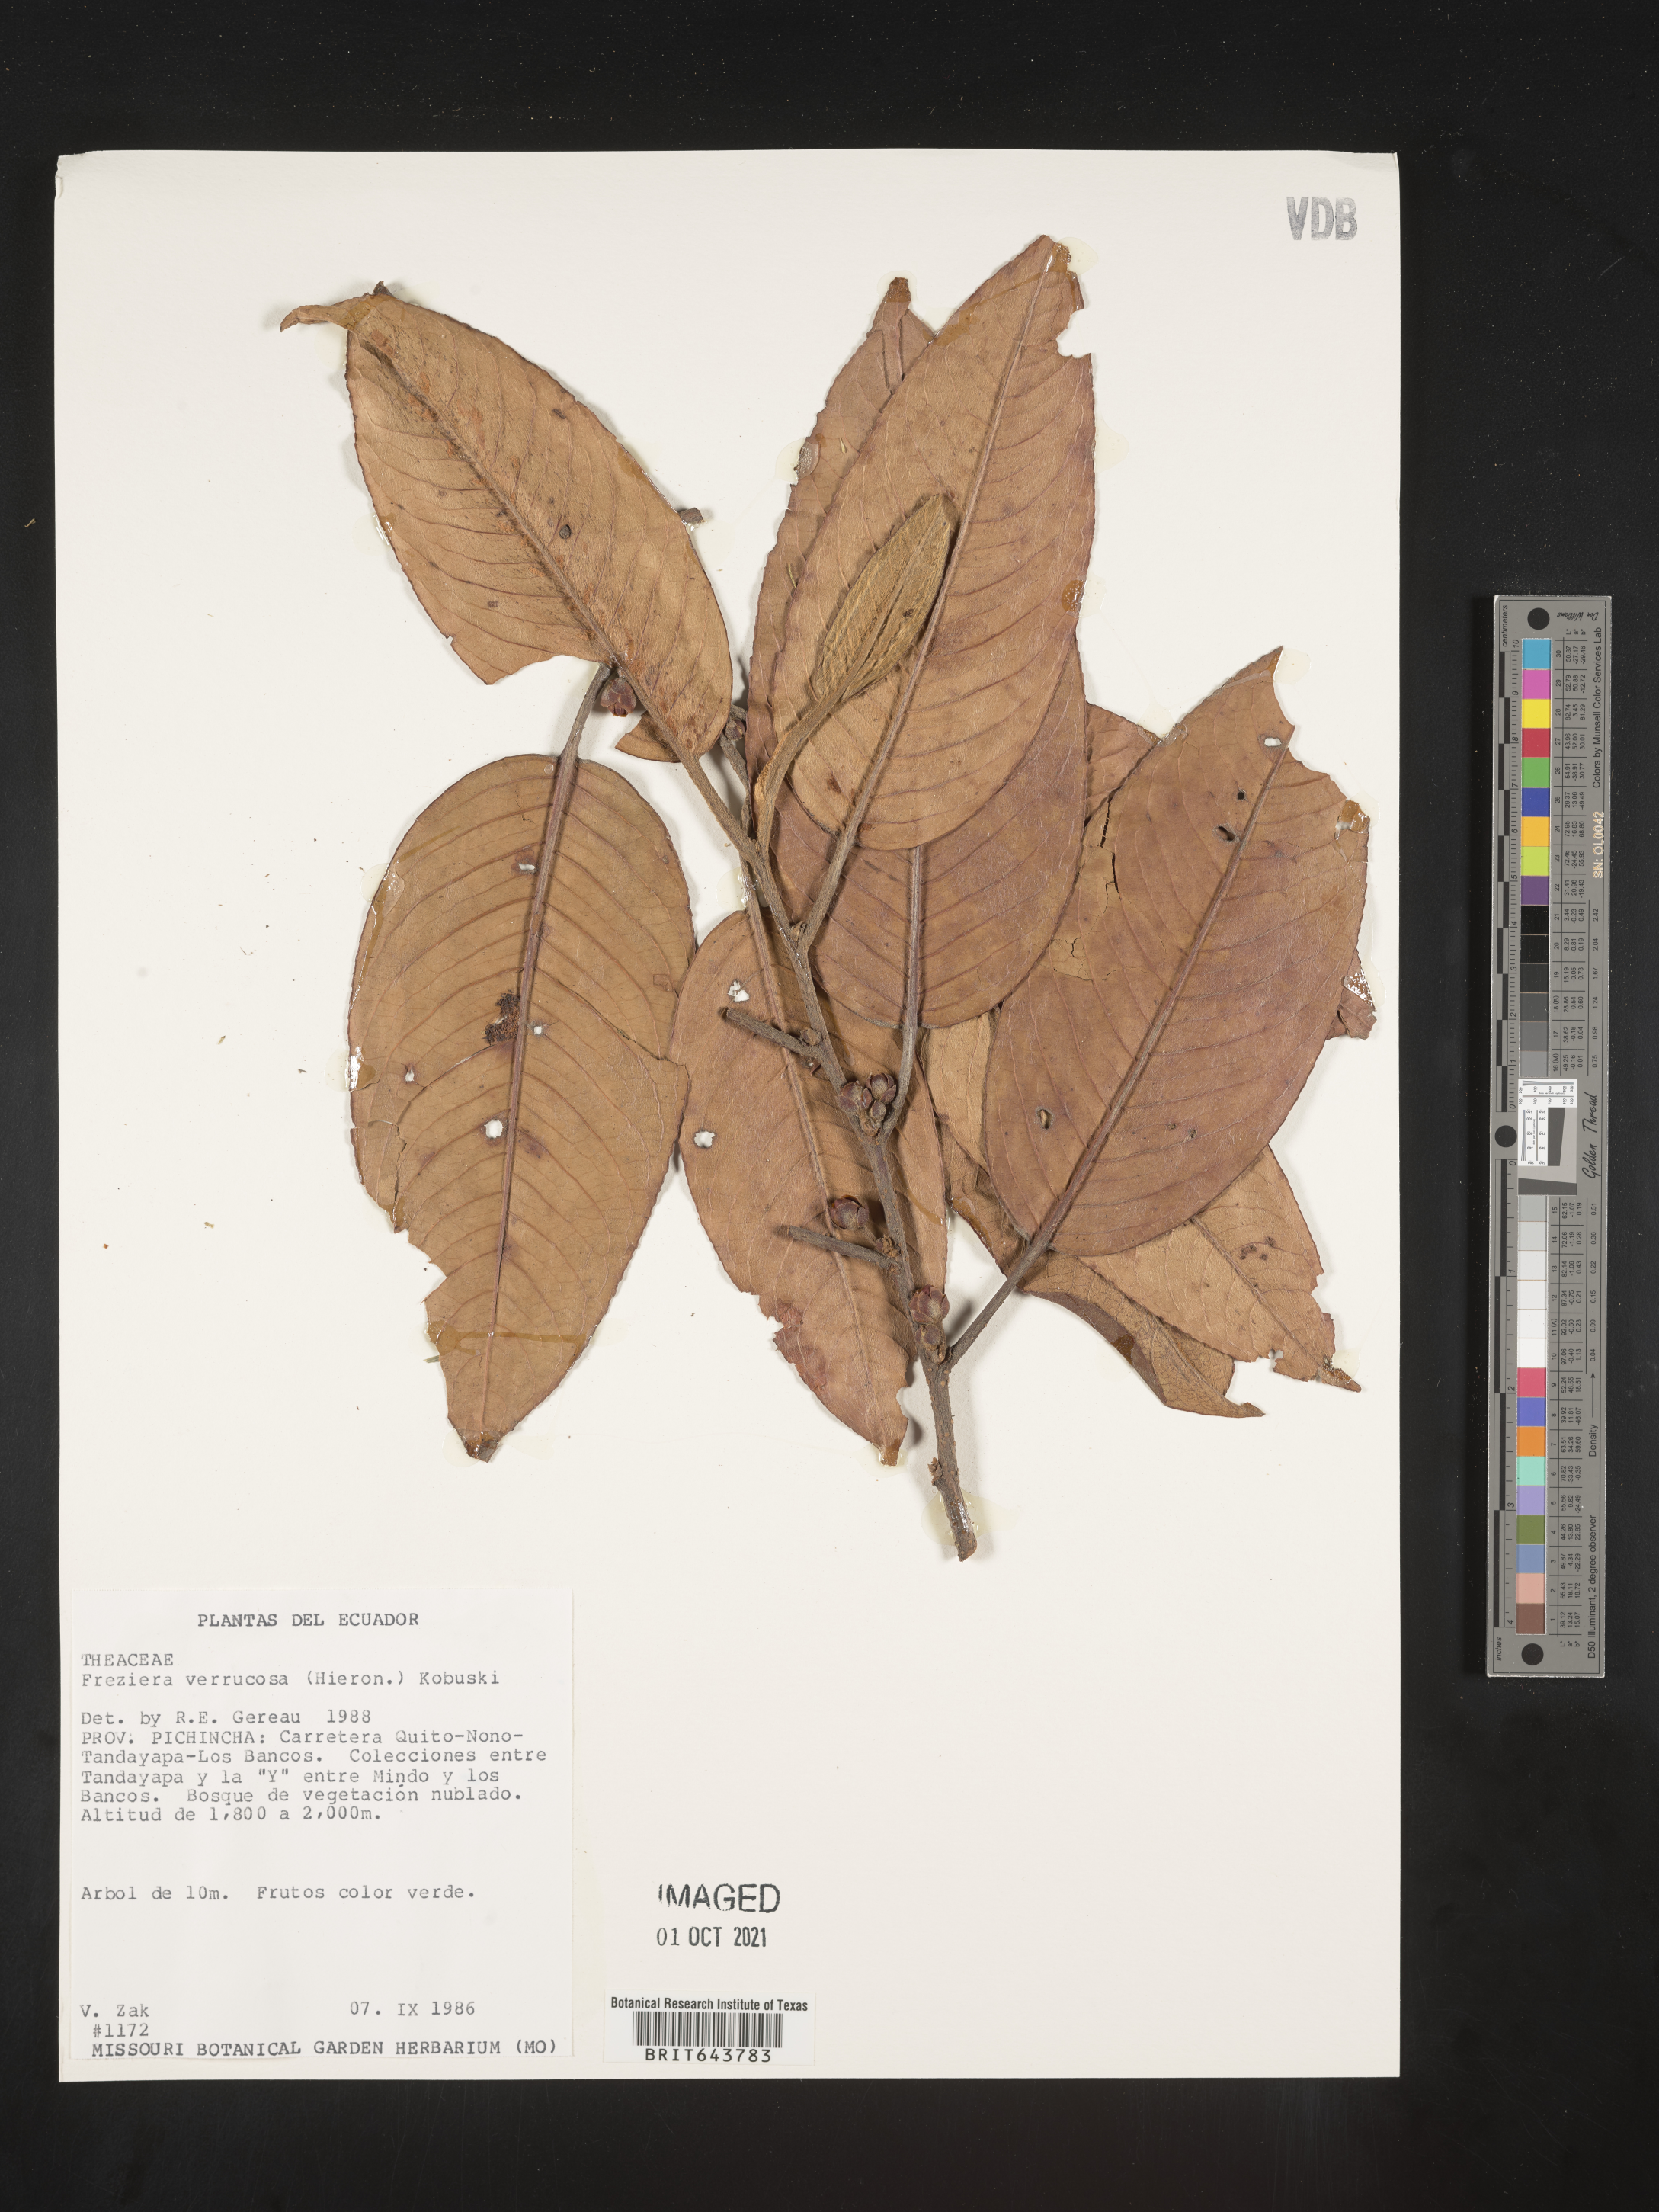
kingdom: Plantae
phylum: Tracheophyta
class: Magnoliopsida
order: Ericales
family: Pentaphylacaceae
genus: Freziera
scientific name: Freziera
